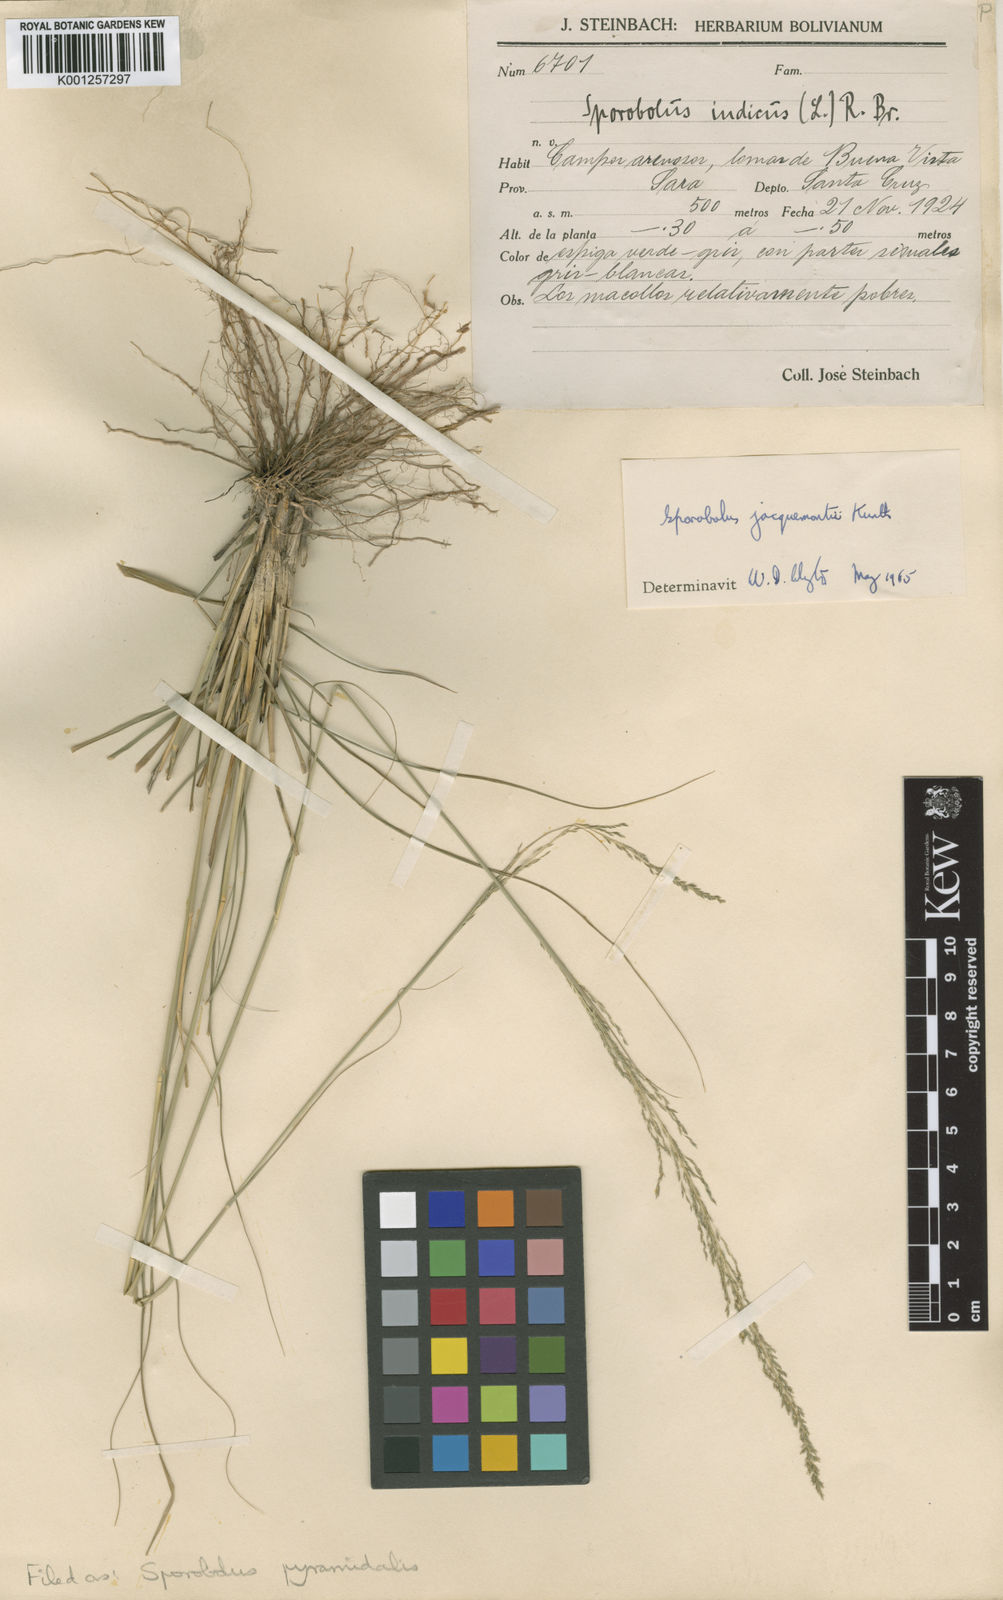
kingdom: Plantae
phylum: Tracheophyta
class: Liliopsida
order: Poales
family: Poaceae
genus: Sporobolus
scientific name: Sporobolus pyramidalis
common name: West indian dropseed
